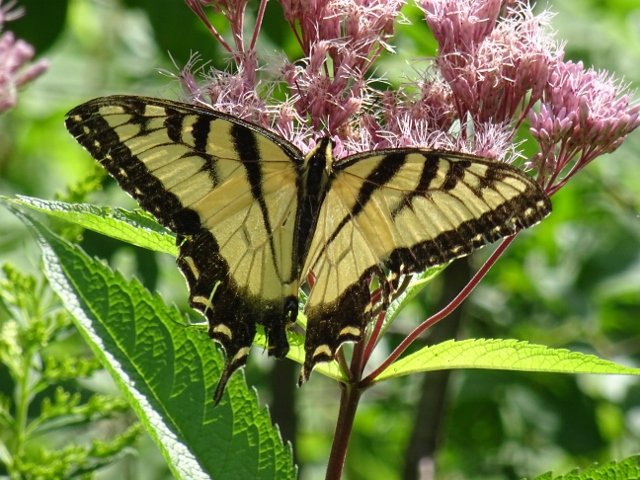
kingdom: Animalia
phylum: Arthropoda
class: Insecta
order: Lepidoptera
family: Papilionidae
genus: Pterourus
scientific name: Pterourus glaucus
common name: Eastern Tiger Swallowtail
